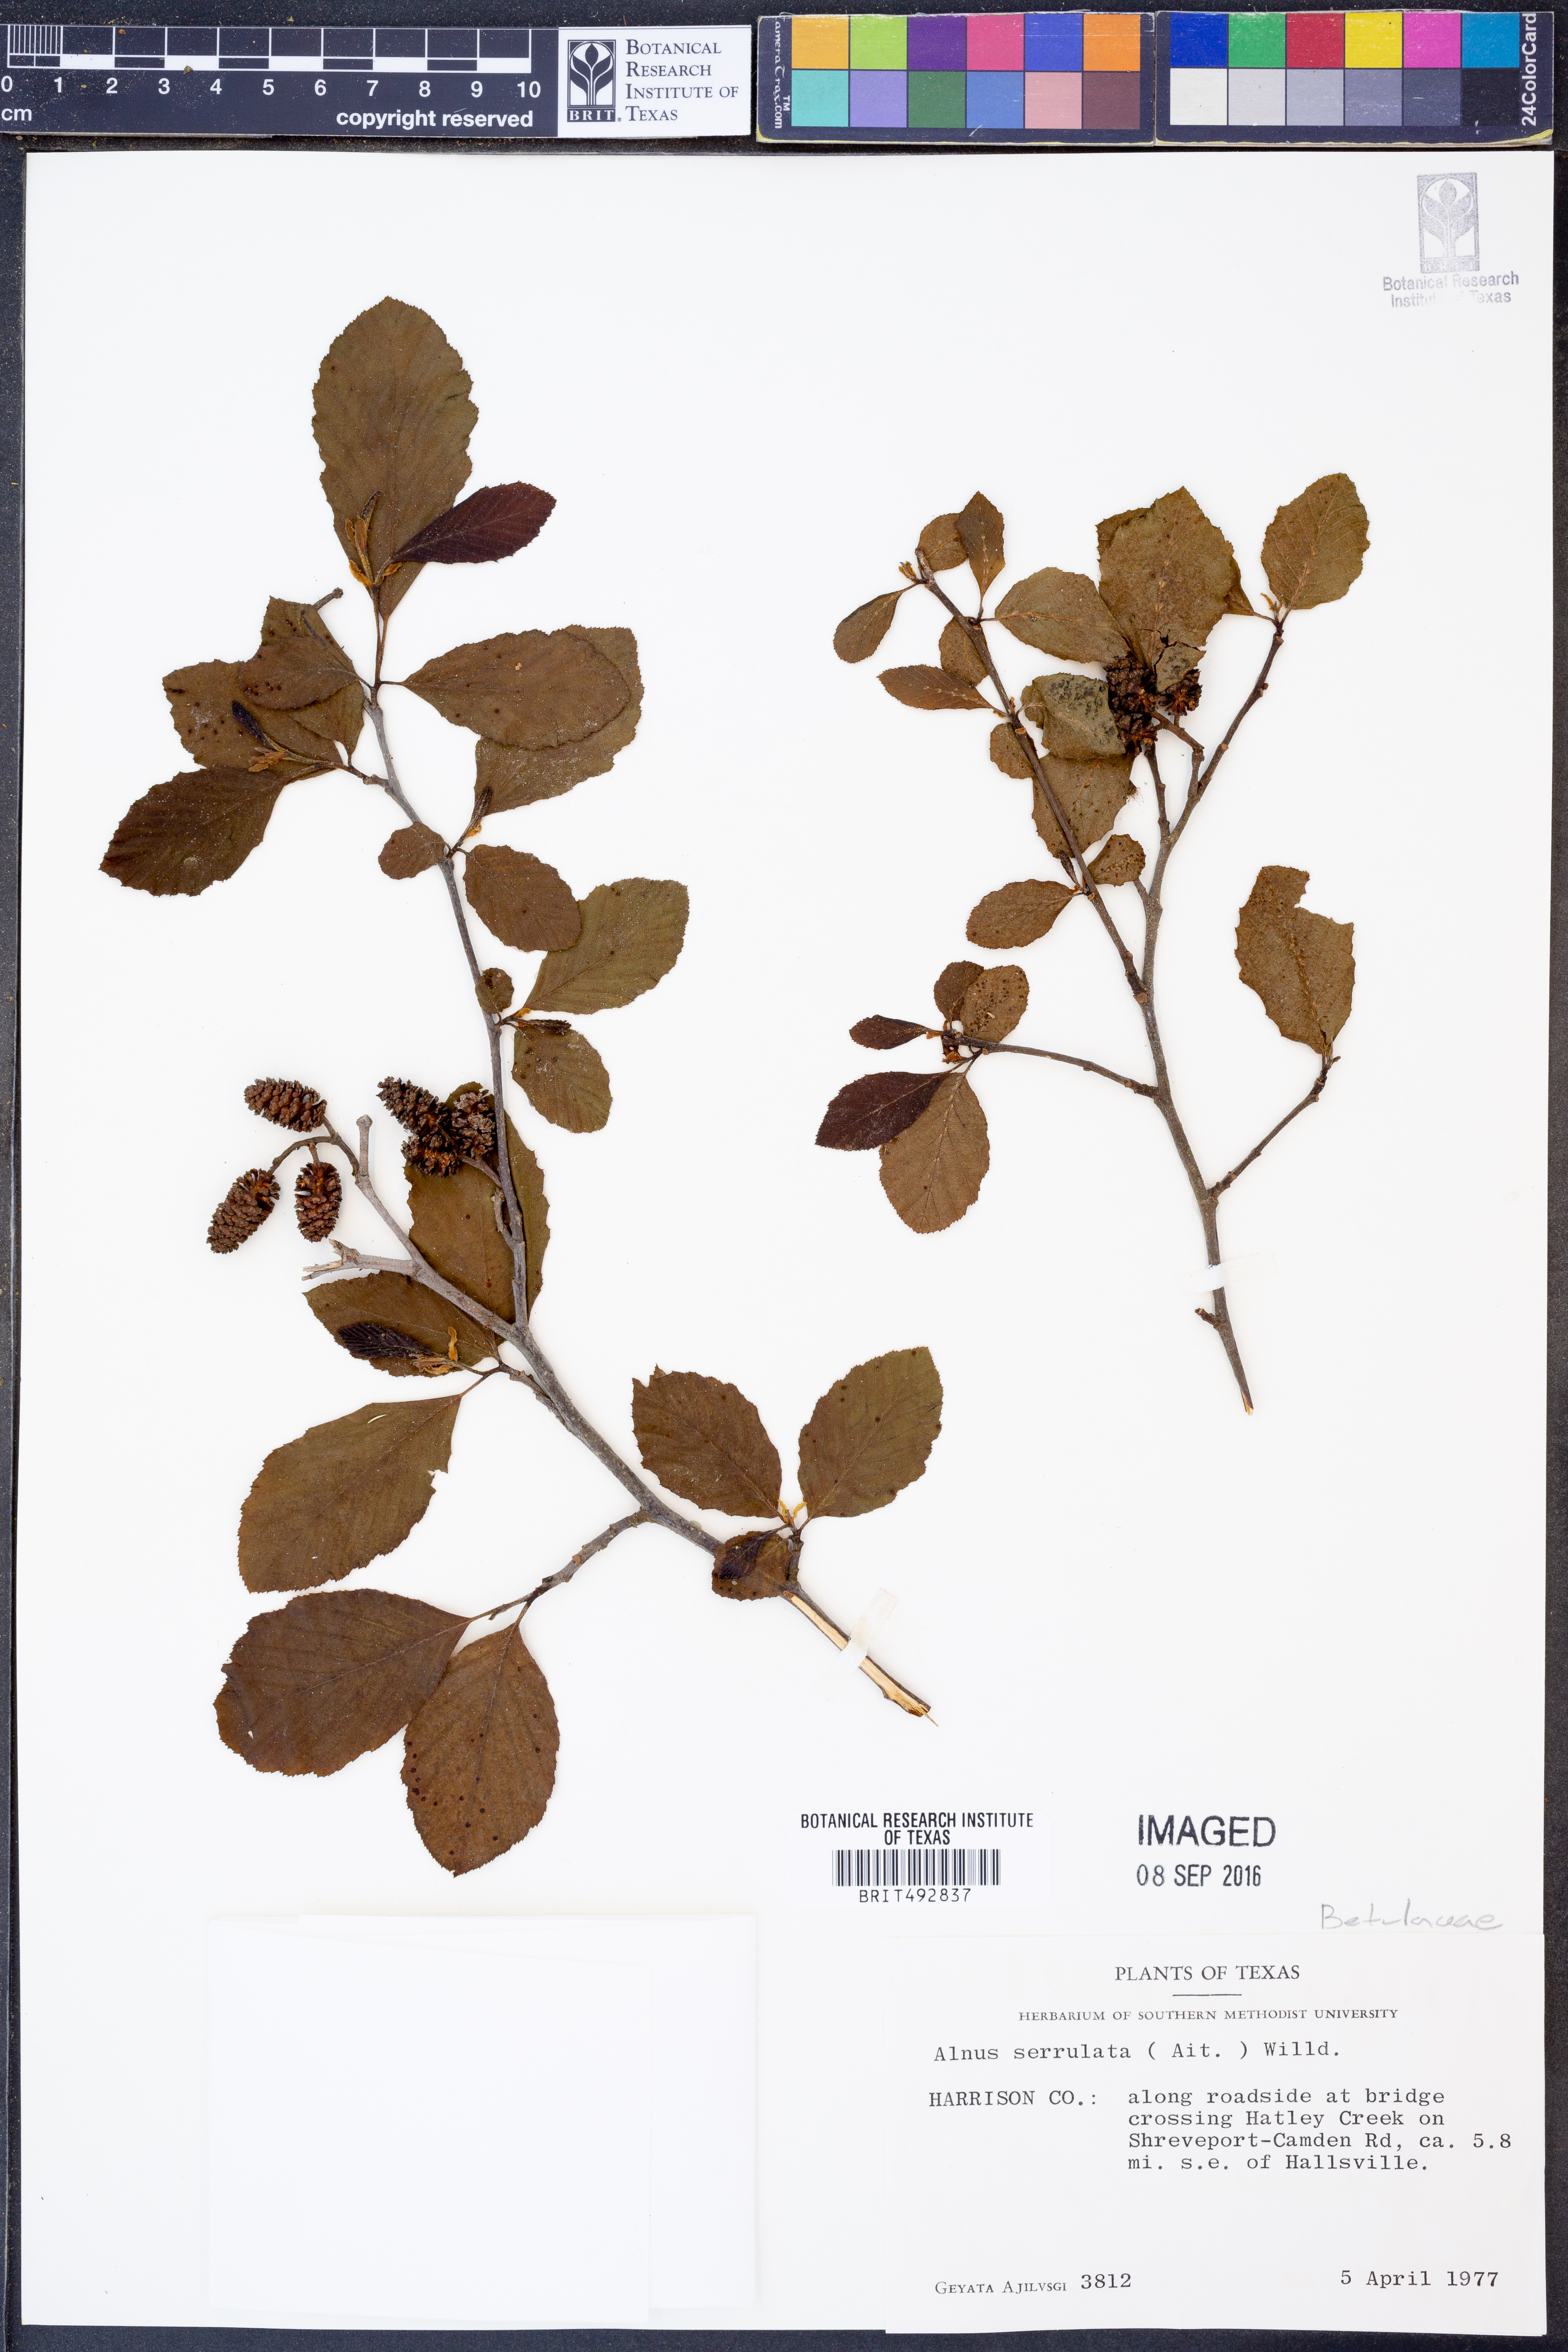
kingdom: Plantae
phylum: Tracheophyta
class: Magnoliopsida
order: Fagales
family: Betulaceae
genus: Alnus
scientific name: Alnus serrulata
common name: Hazel alder
